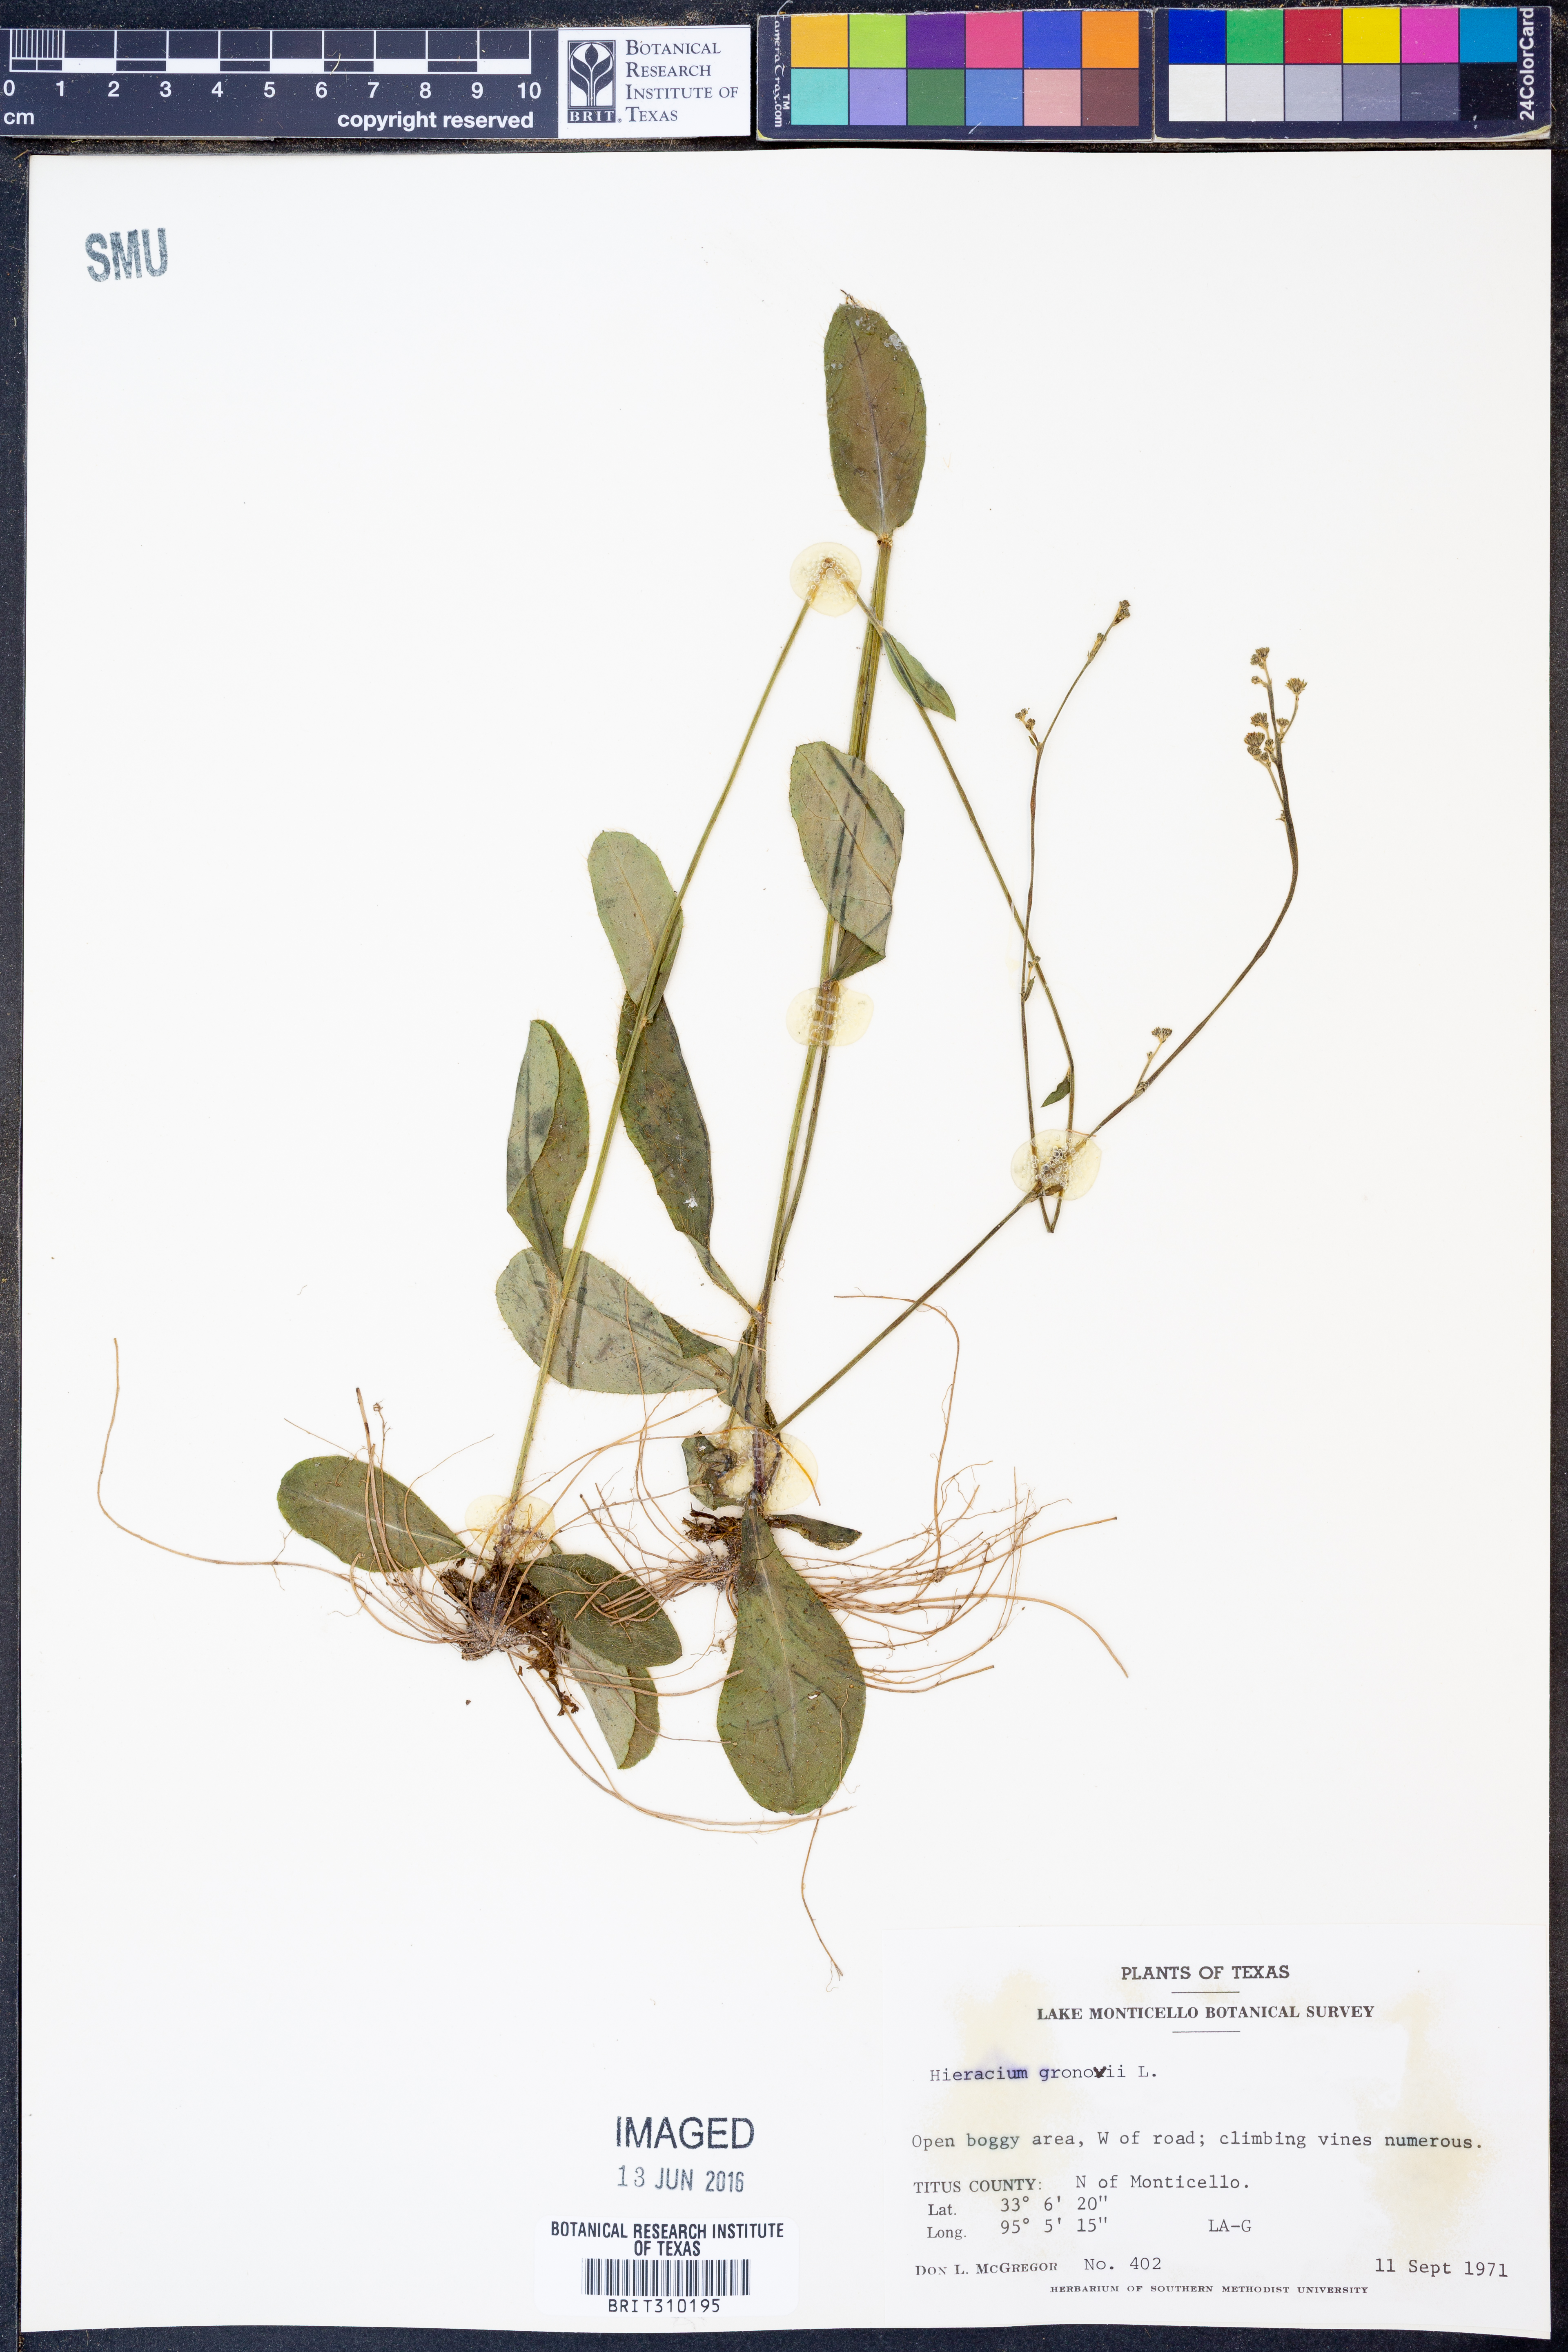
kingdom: Plantae
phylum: Tracheophyta
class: Magnoliopsida
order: Asterales
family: Asteraceae
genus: Hieracium
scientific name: Hieracium gronovii
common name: Beaked hawkweed
